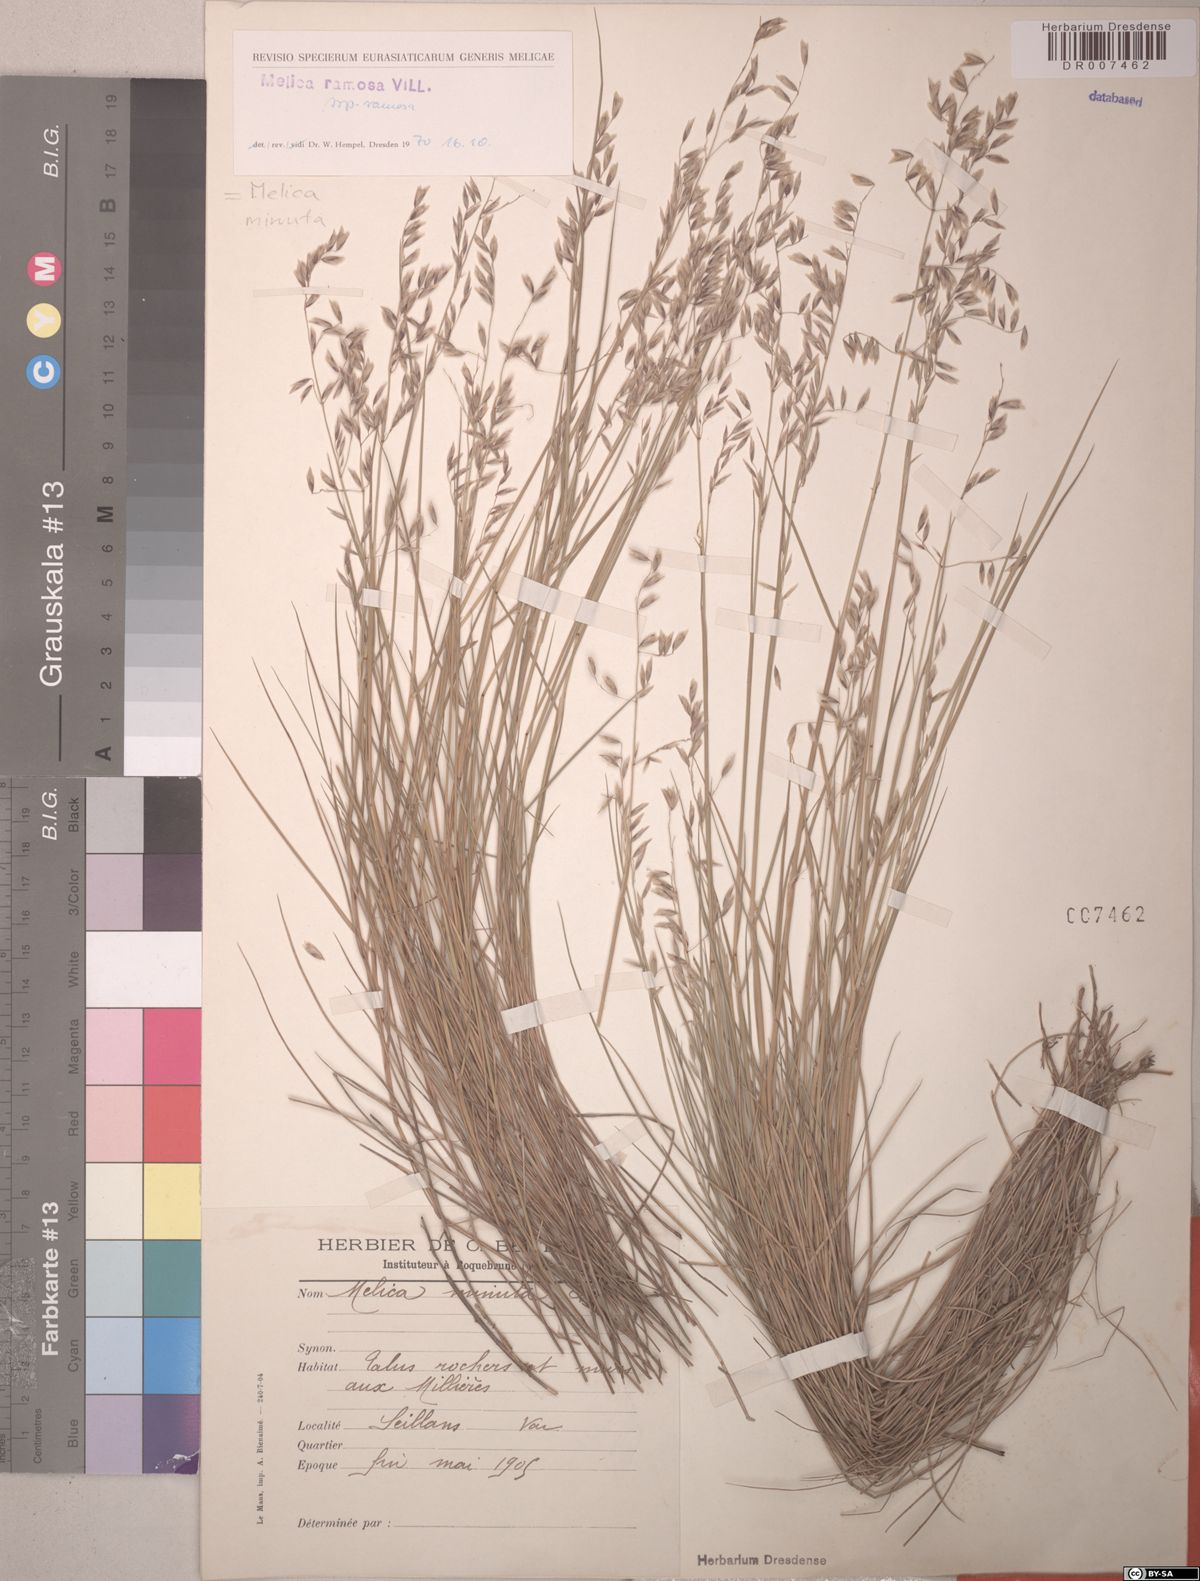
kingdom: Plantae
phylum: Tracheophyta
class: Liliopsida
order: Poales
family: Poaceae
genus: Melica
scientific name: Melica minuta
